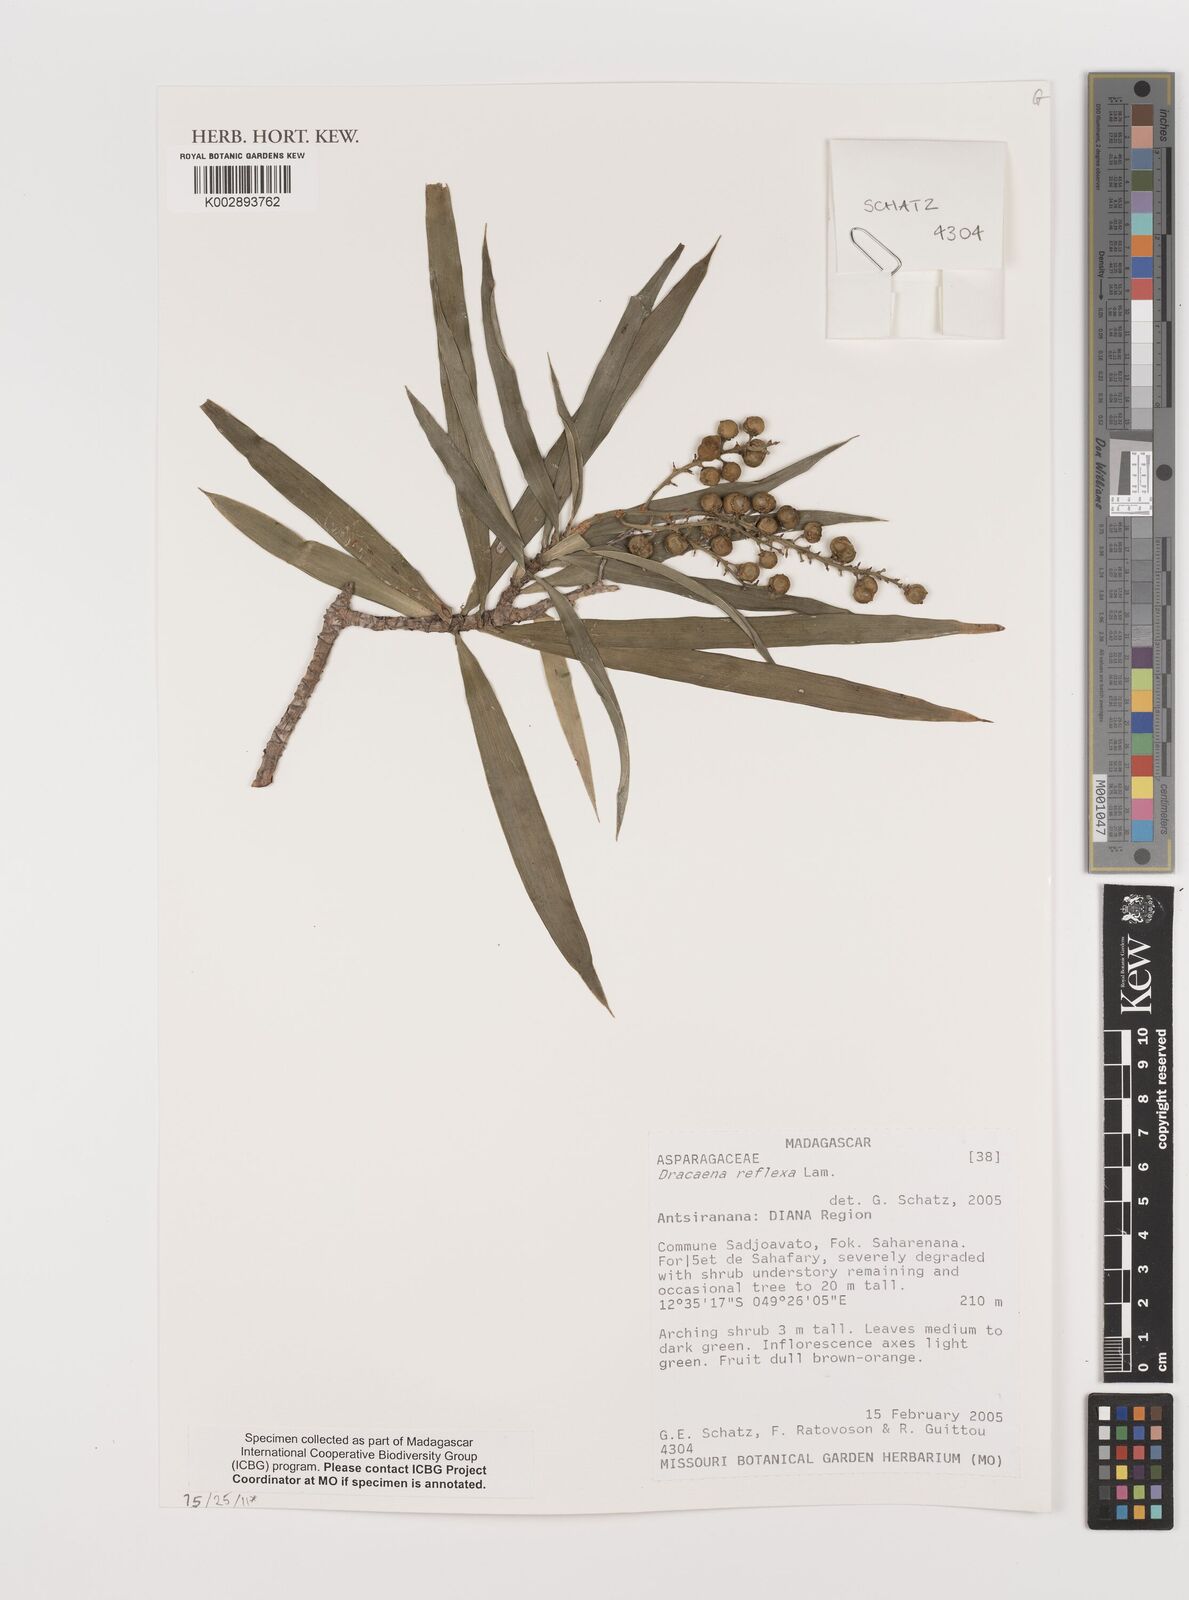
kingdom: Plantae
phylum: Tracheophyta
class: Liliopsida
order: Asparagales
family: Asparagaceae
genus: Dracaena
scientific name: Dracaena reflexa
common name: Song-of-india
